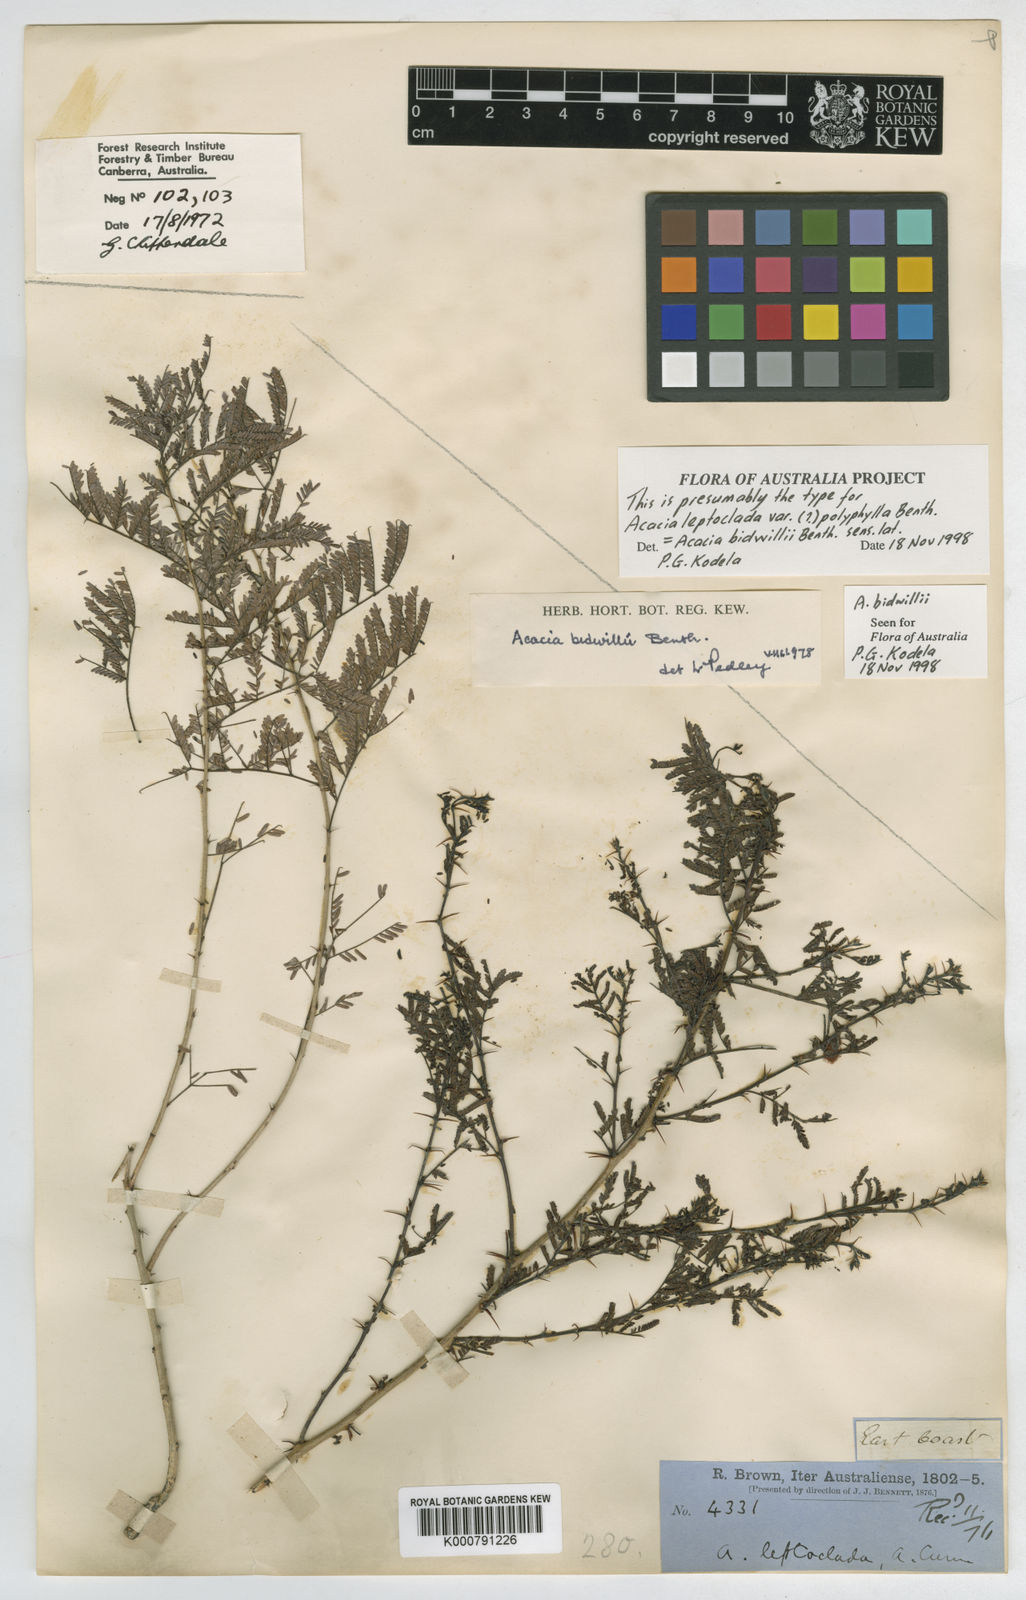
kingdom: Plantae
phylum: Tracheophyta
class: Magnoliopsida
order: Fabales
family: Fabaceae
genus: Vachellia
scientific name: Vachellia bidwillii
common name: Corkwood wattle
